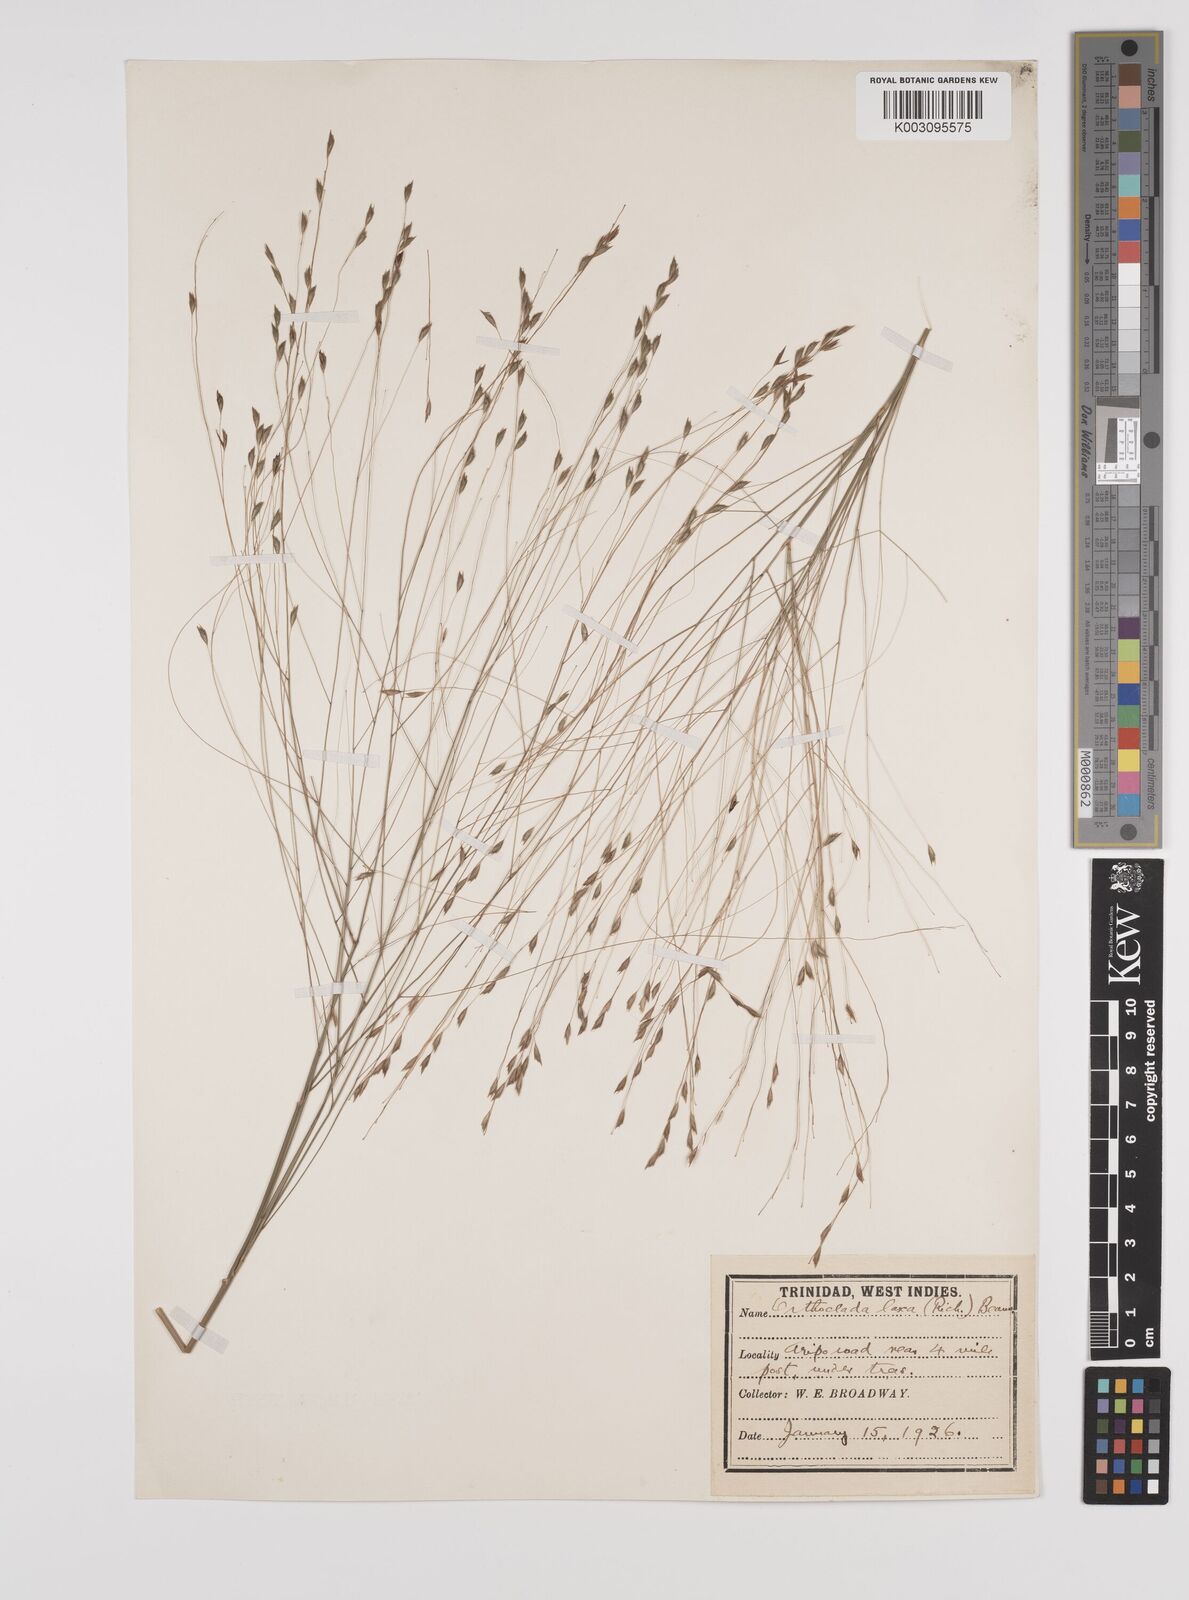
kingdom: Plantae
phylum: Tracheophyta
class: Liliopsida
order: Poales
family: Poaceae
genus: Orthoclada
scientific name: Orthoclada laxa
